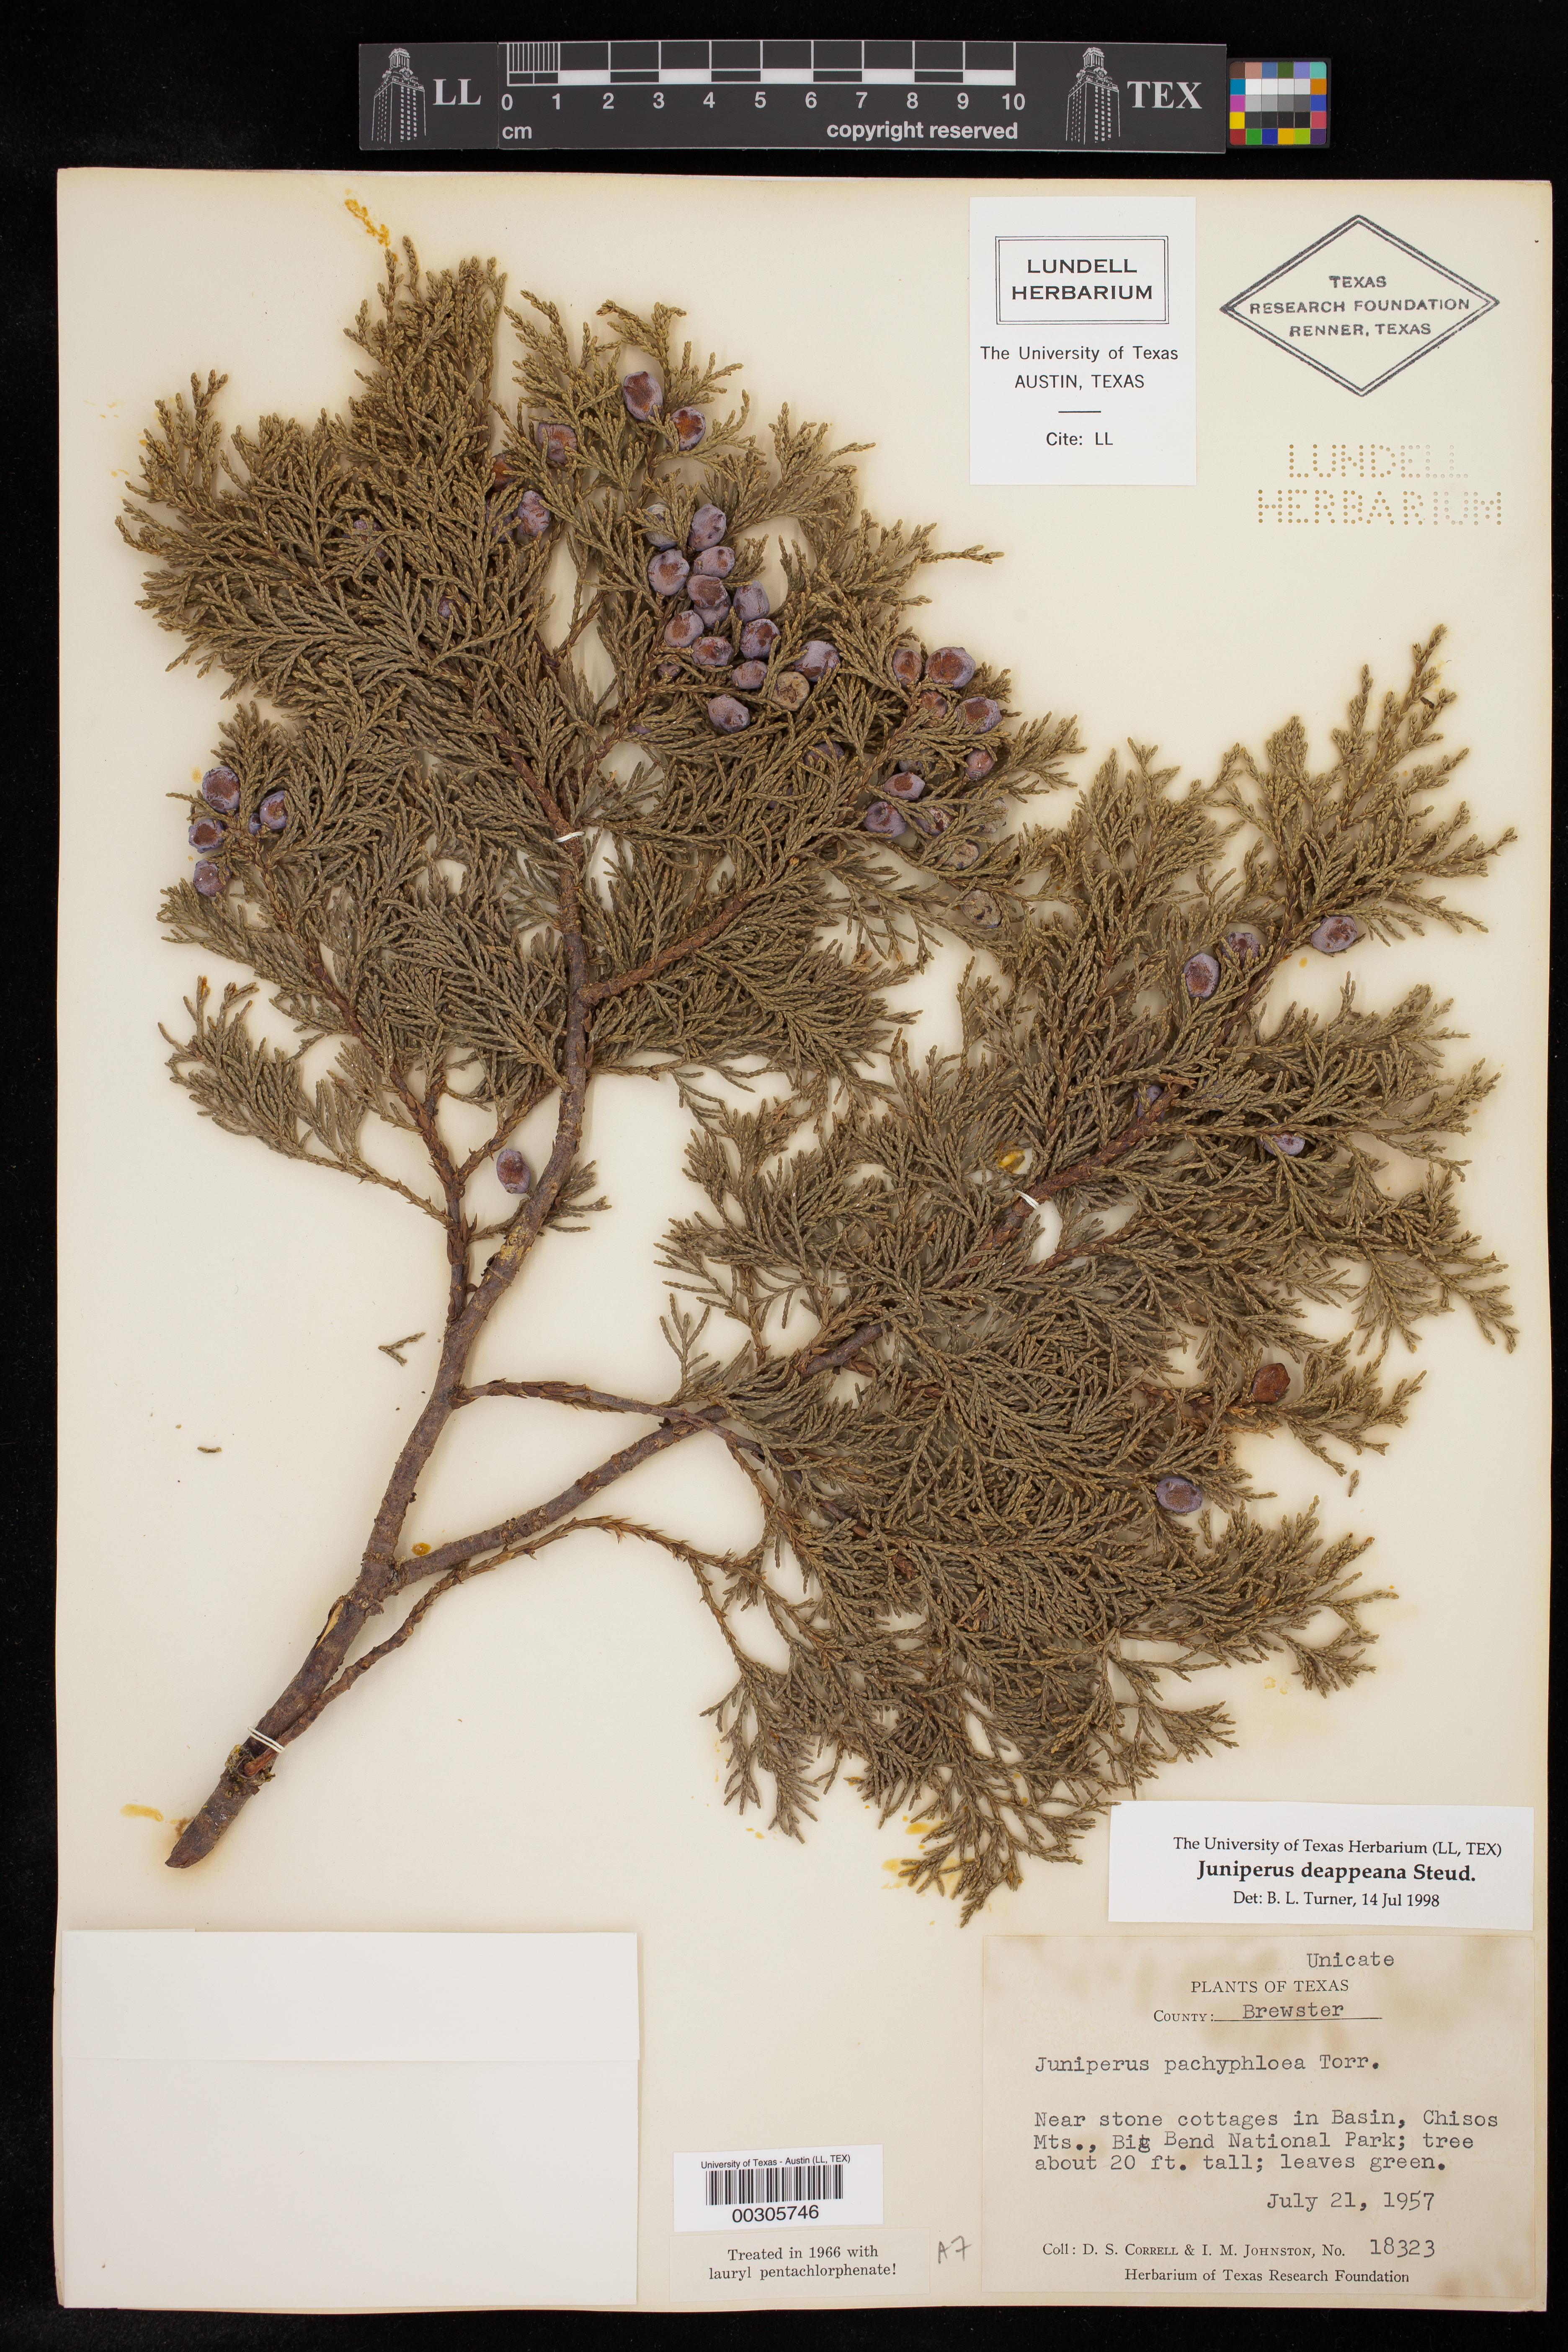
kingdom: Plantae
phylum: Tracheophyta
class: Pinopsida
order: Pinales
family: Cupressaceae
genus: Juniperus
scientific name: Juniperus deppeana
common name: Alligator juniper
